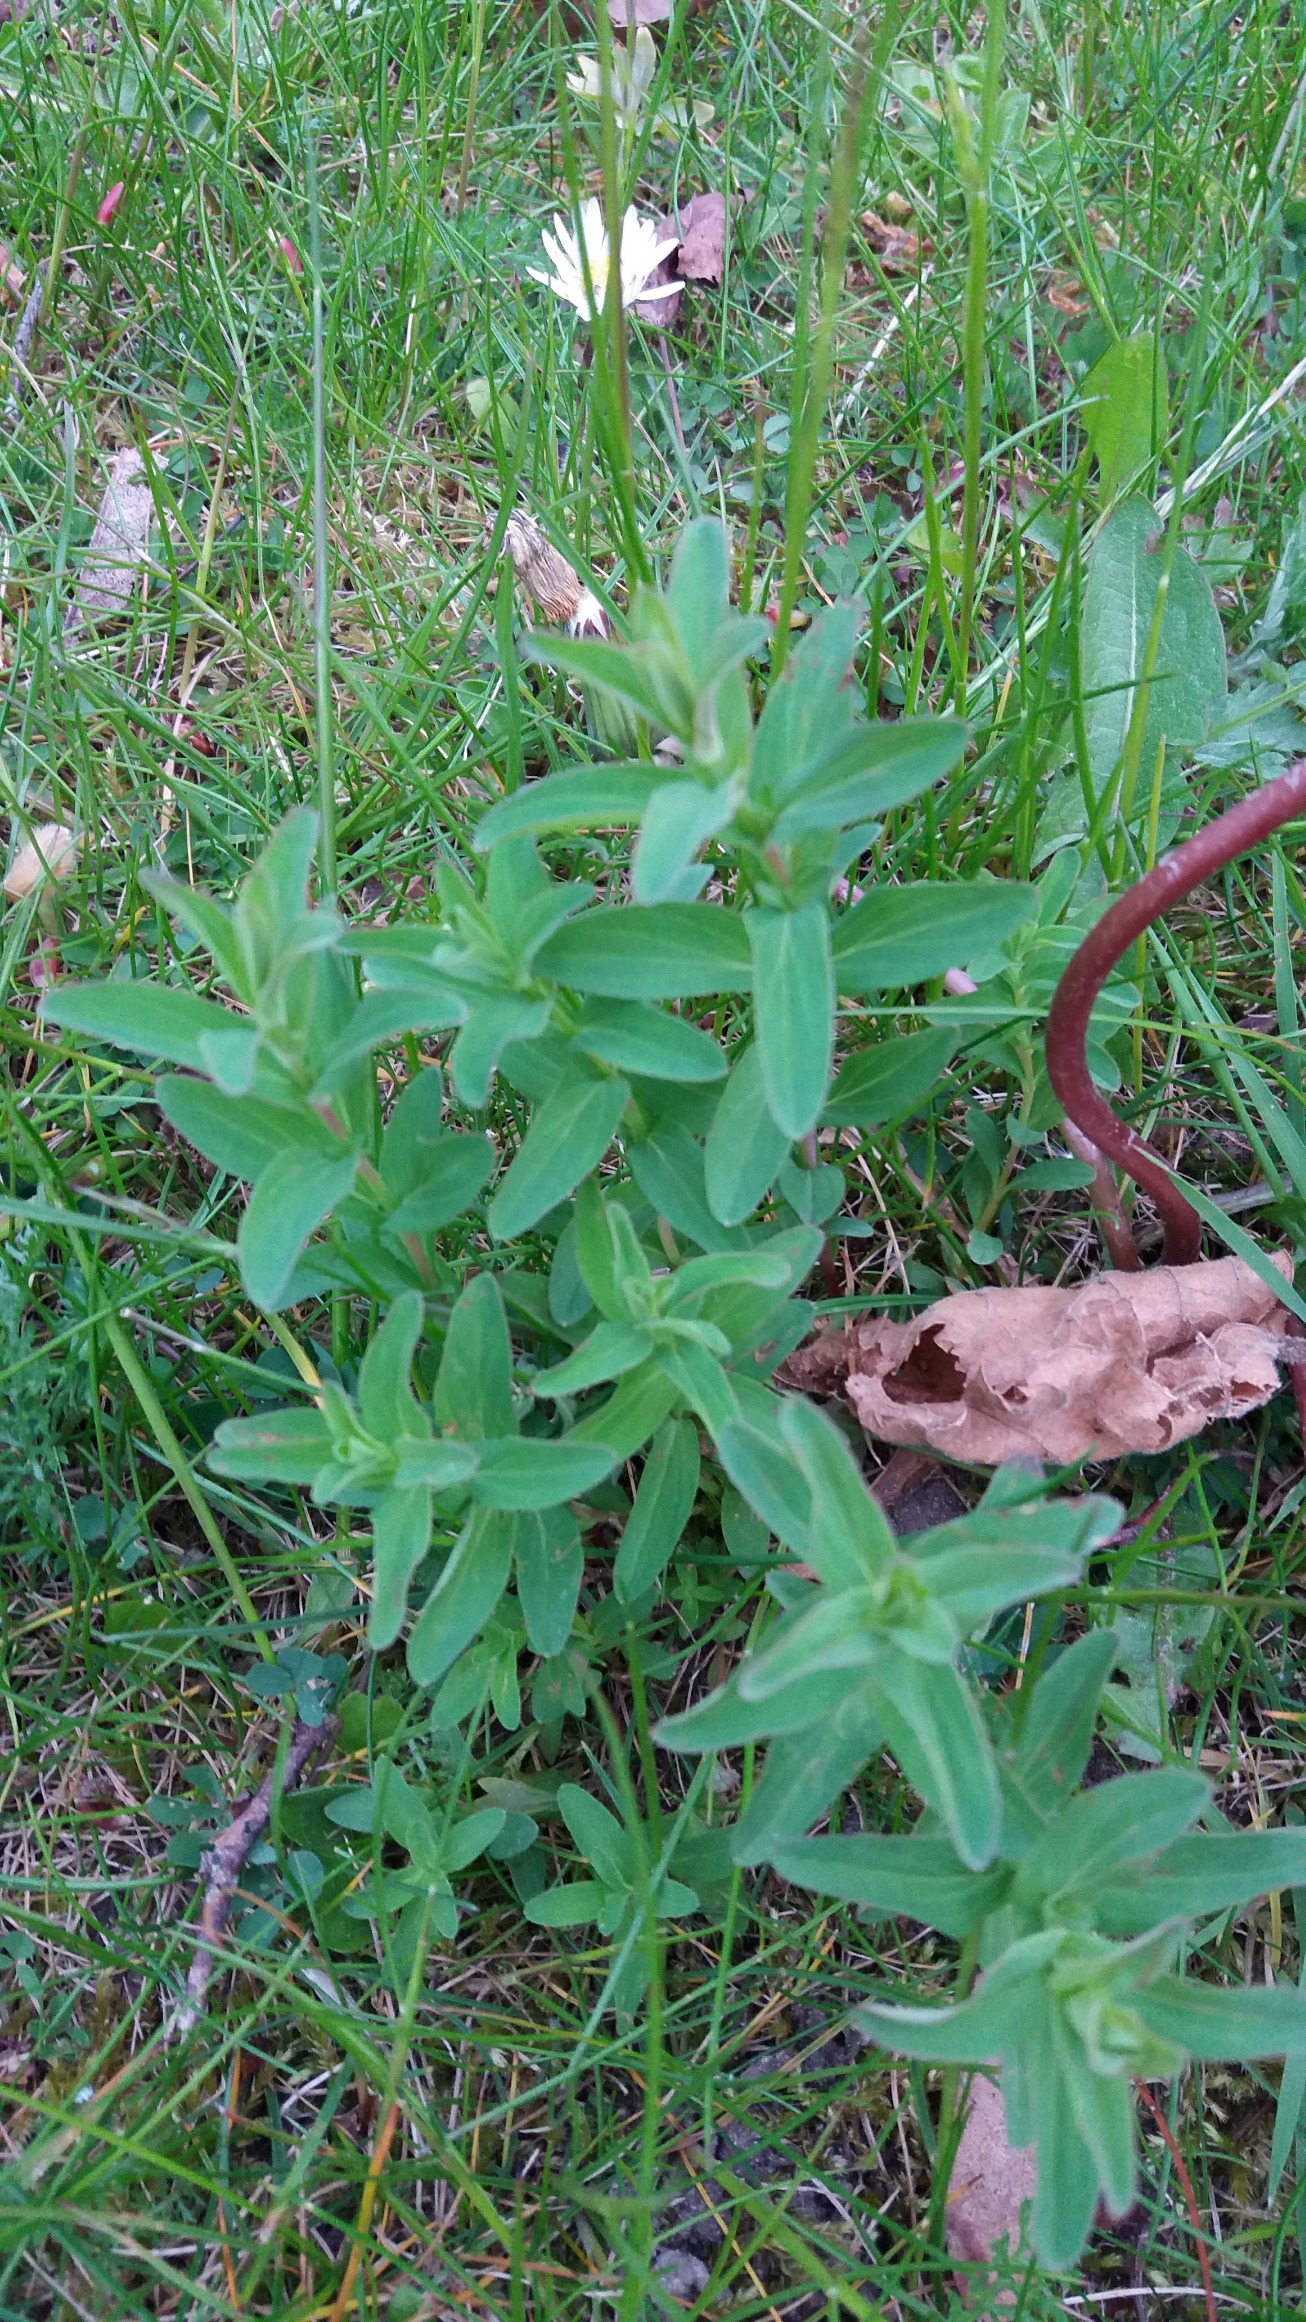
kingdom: Plantae
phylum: Tracheophyta
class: Magnoliopsida
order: Malpighiales
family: Hypericaceae
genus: Hypericum
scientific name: Hypericum
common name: Perikonslægten
